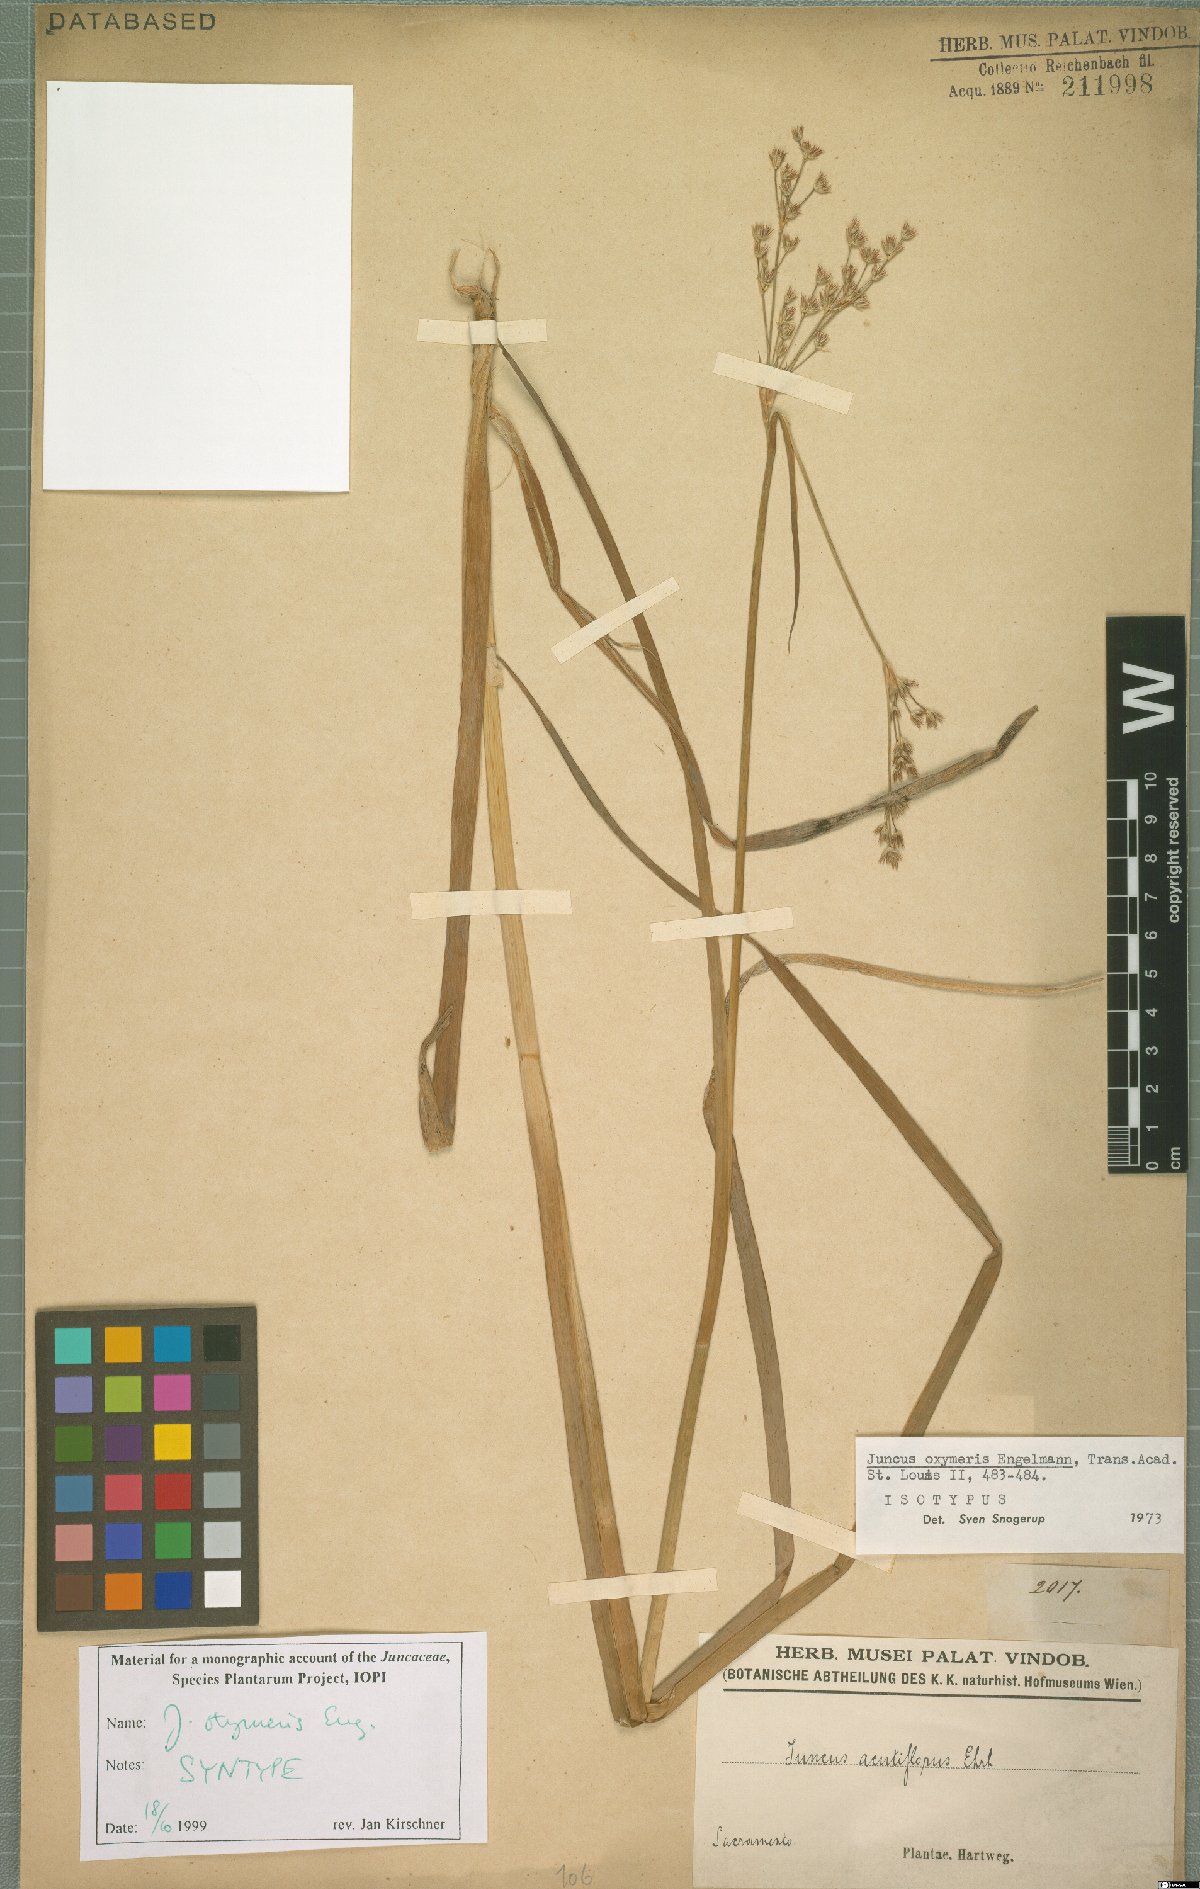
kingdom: Plantae
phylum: Tracheophyta
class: Liliopsida
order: Poales
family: Juncaceae
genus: Juncus
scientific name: Juncus oxymeris
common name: Pointed rush
